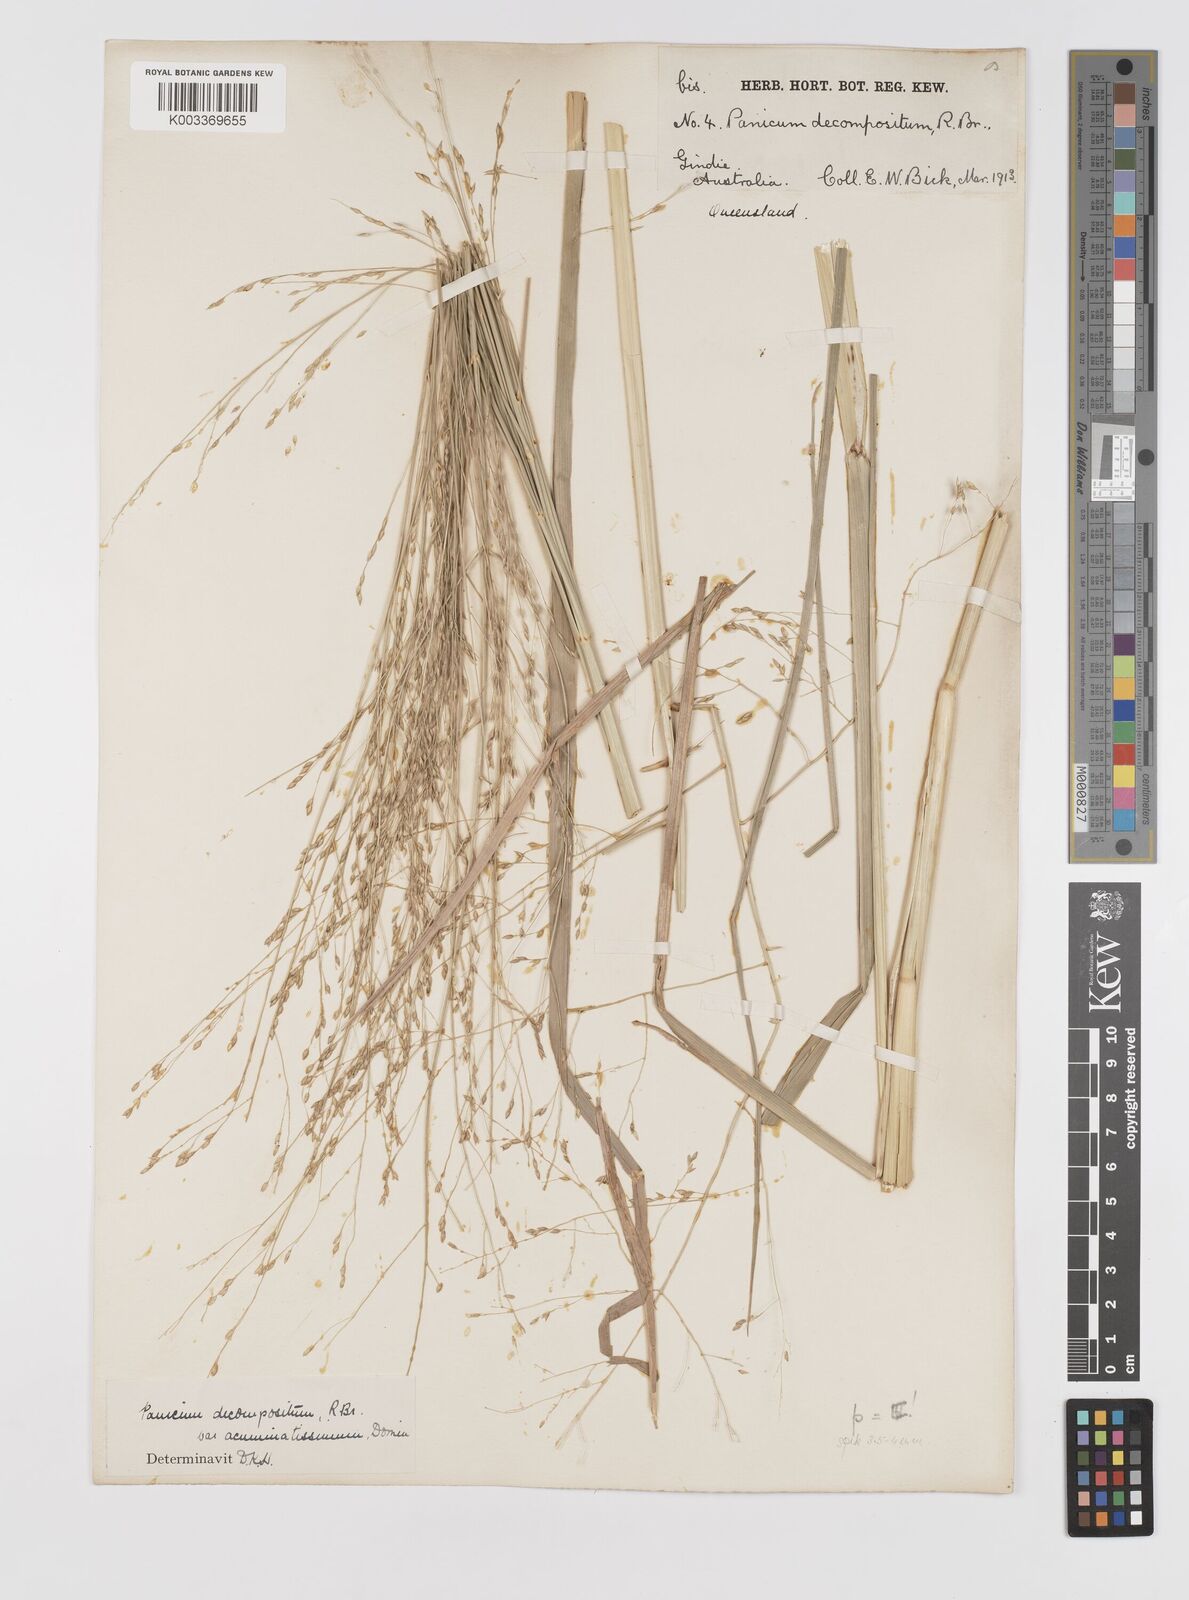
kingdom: Plantae
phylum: Tracheophyta
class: Liliopsida
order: Poales
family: Poaceae
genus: Panicum
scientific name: Panicum decompositum
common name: Australian millet
